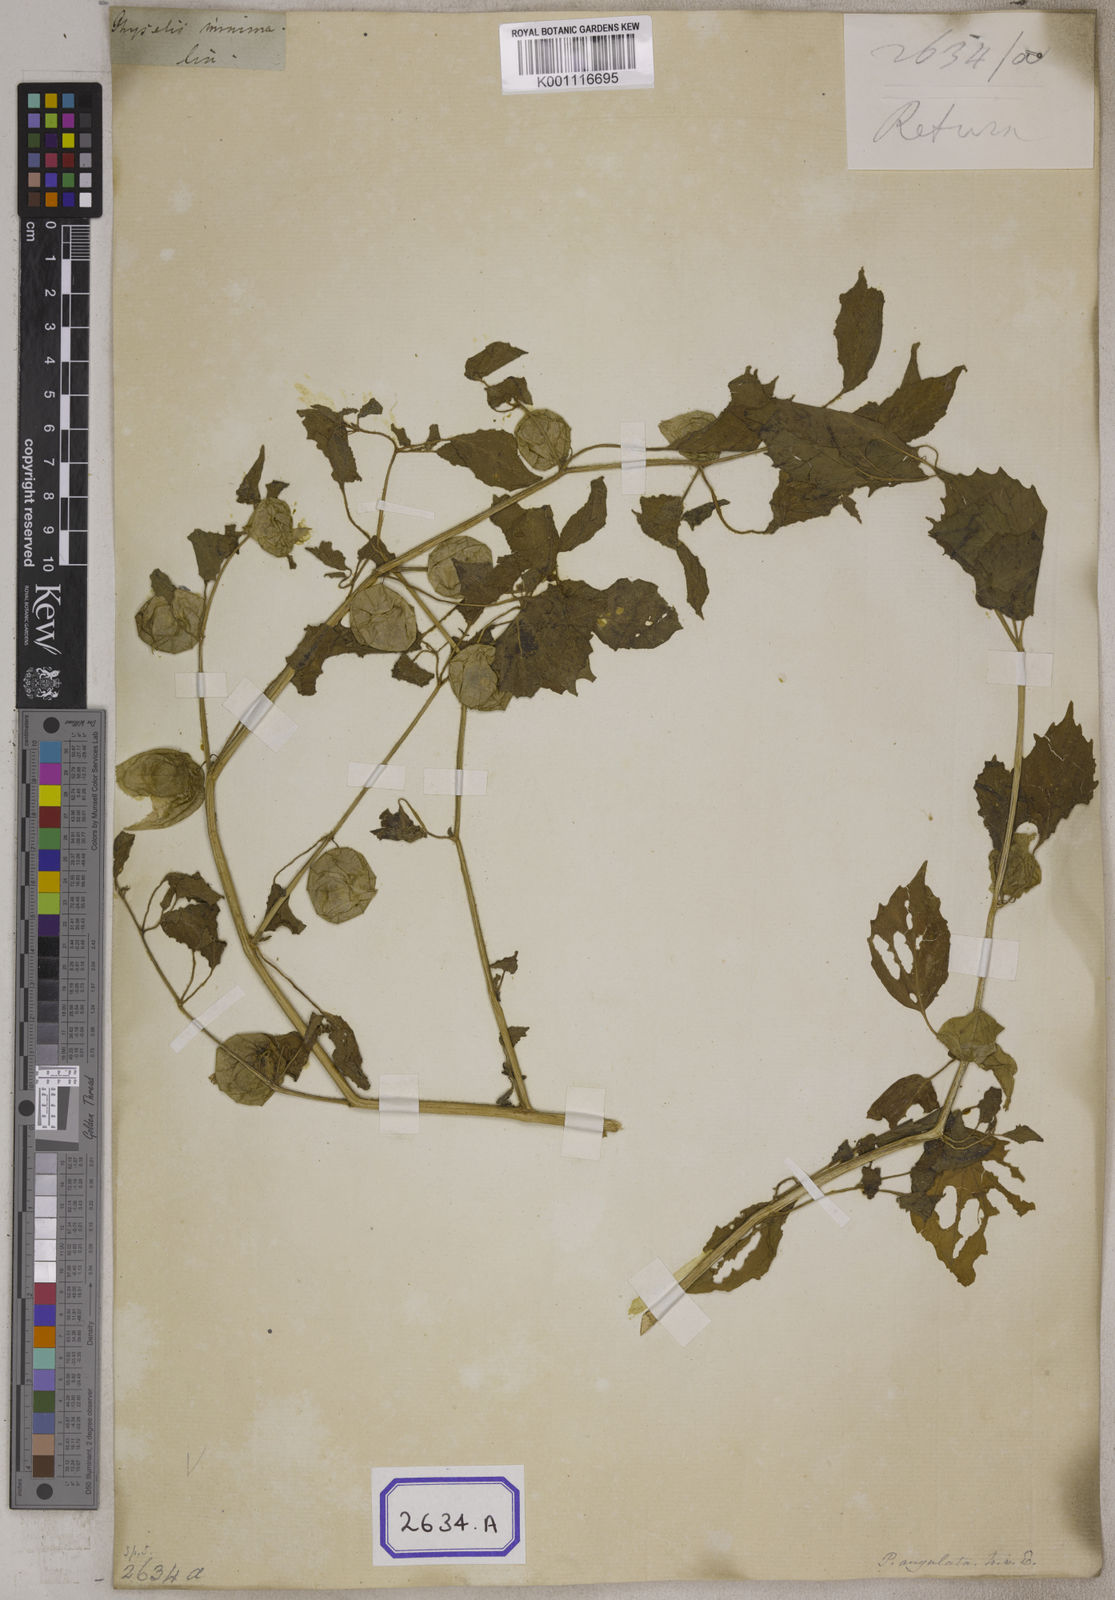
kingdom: Plantae
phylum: Tracheophyta
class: Magnoliopsida
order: Solanales
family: Solanaceae
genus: Physalis
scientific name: Physalis peruviana
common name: Cape-gooseberry
